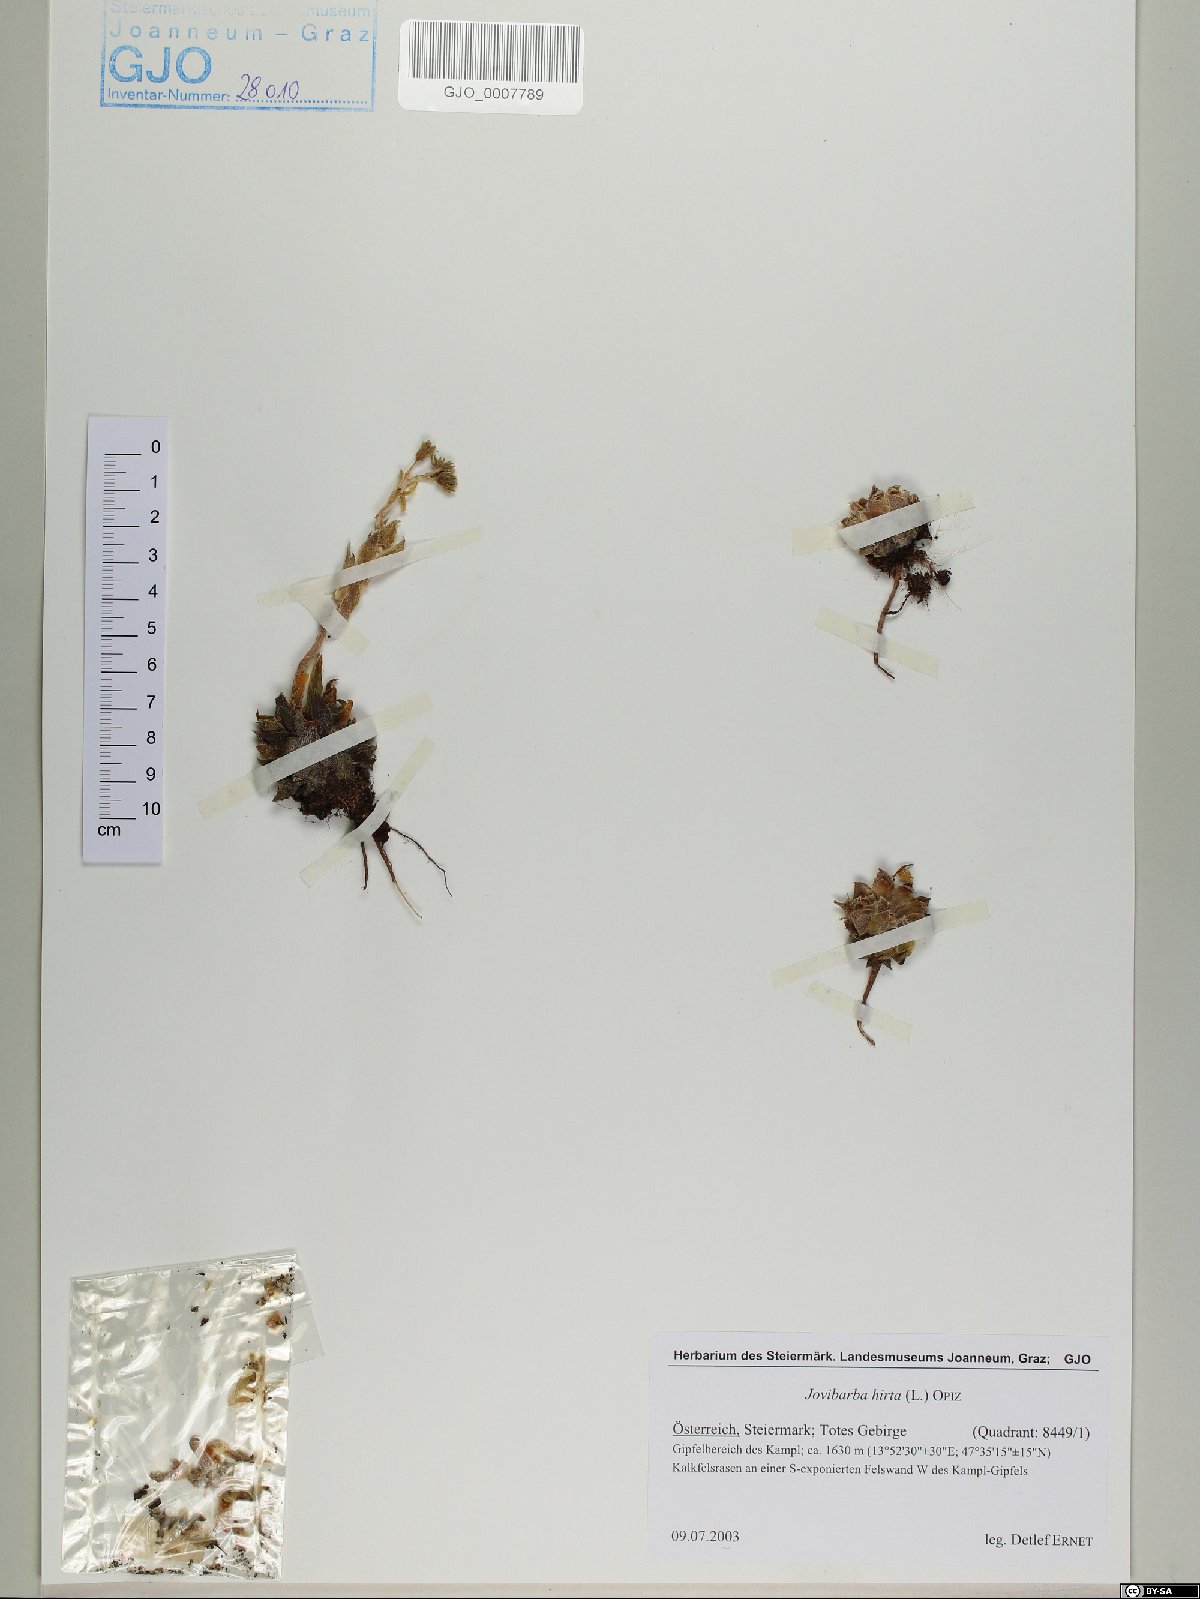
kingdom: Plantae
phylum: Tracheophyta
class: Magnoliopsida
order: Saxifragales
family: Crassulaceae
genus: Sempervivum
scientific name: Sempervivum globiferum
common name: Rolling hen-and-chicks
